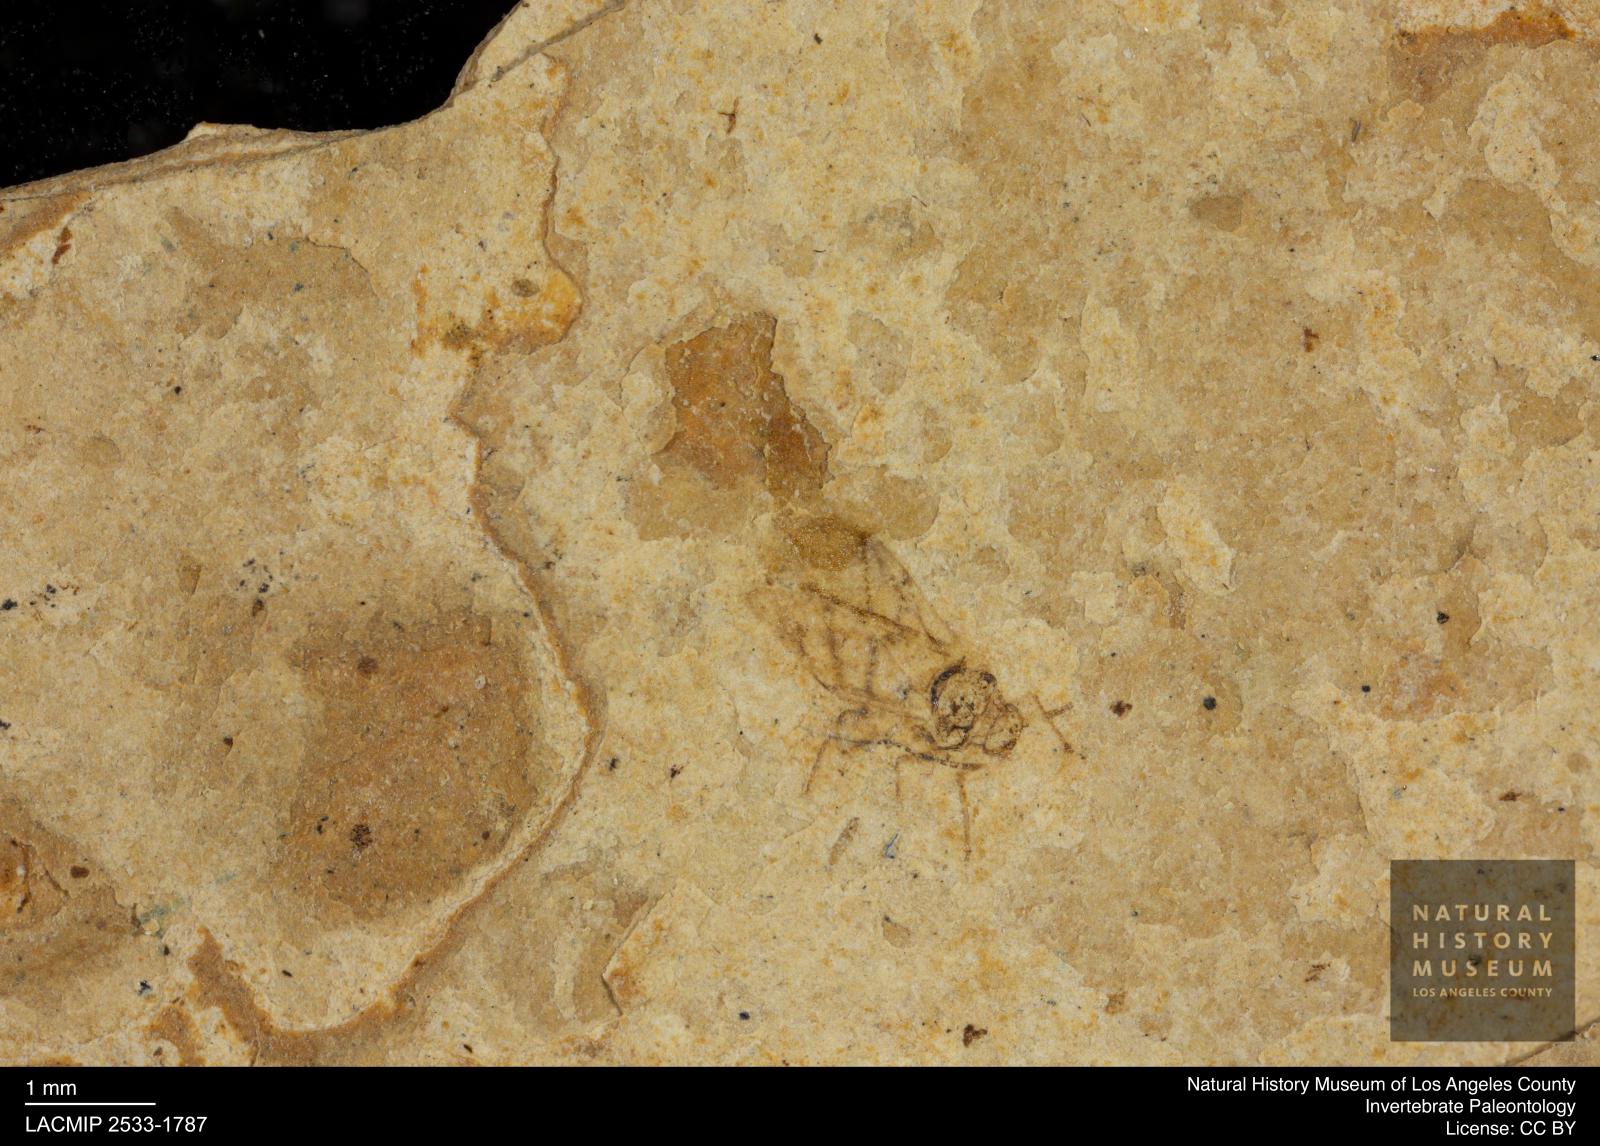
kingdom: Animalia
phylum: Arthropoda
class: Insecta
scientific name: Insecta
